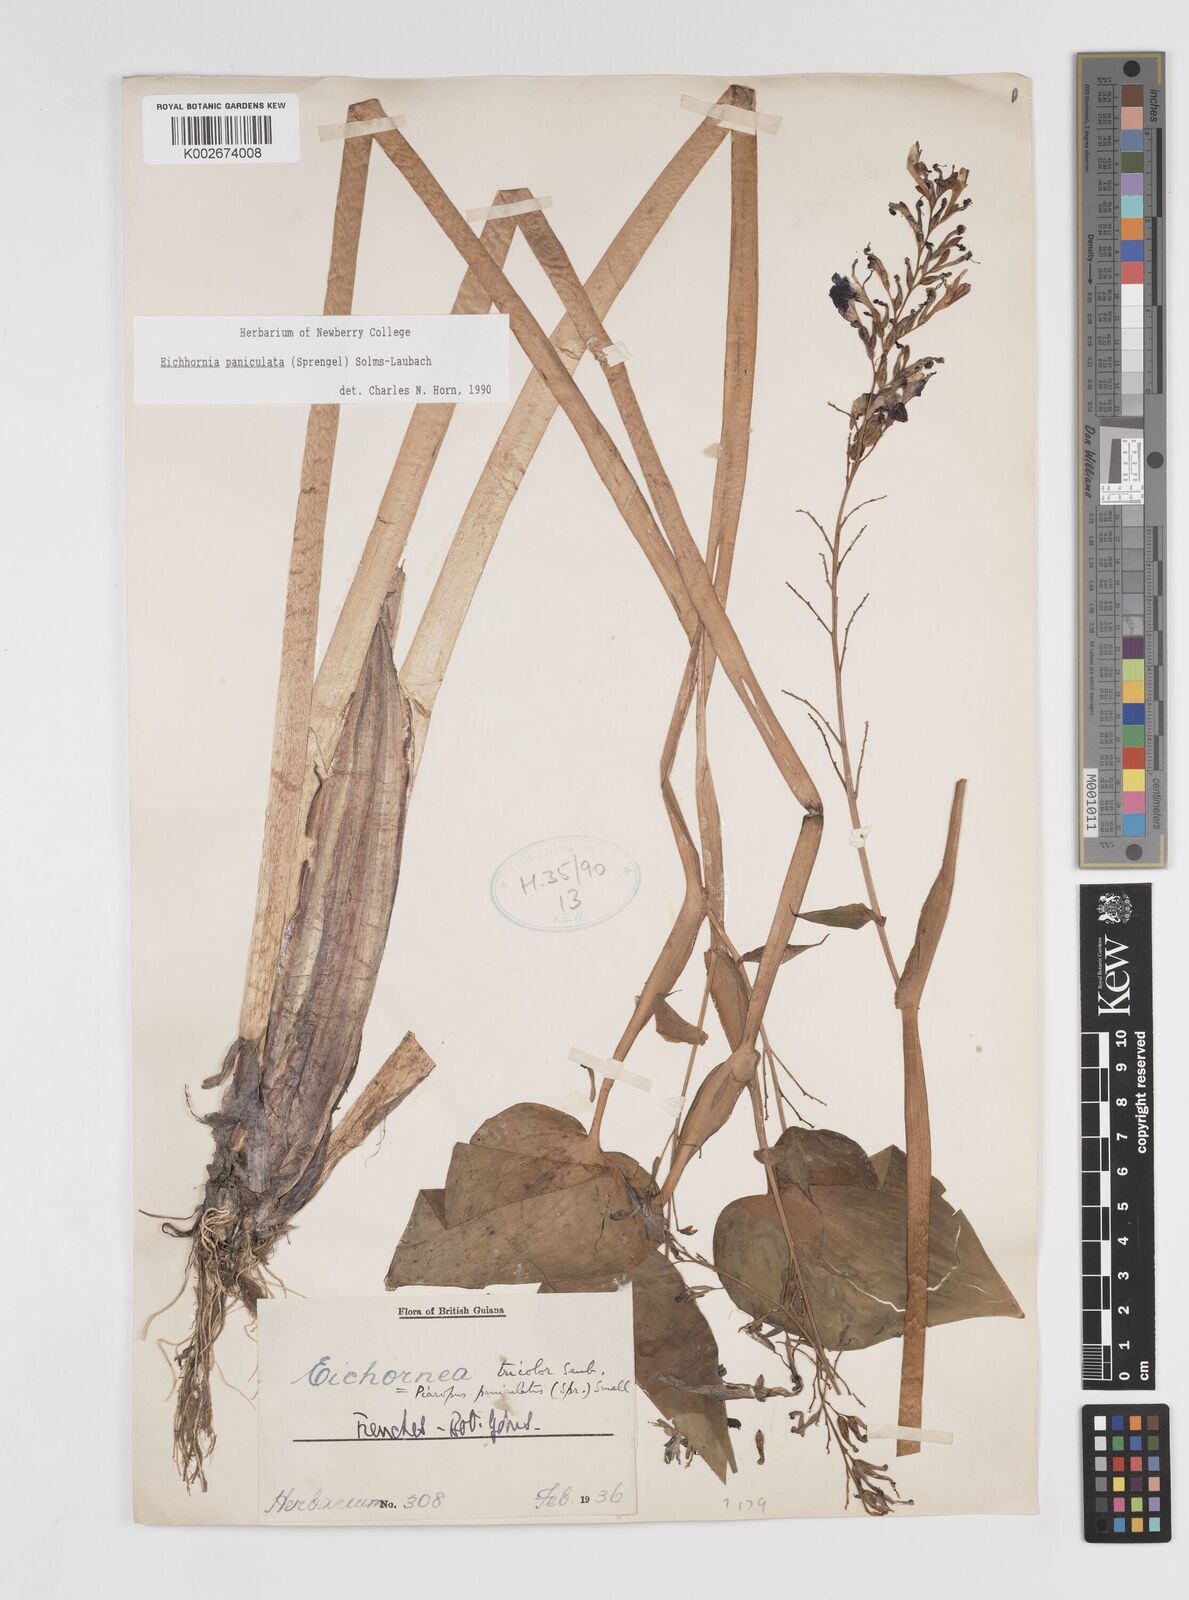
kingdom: Plantae
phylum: Tracheophyta
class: Liliopsida
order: Commelinales
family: Pontederiaceae
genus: Pontederia
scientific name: Pontederia paniculata
